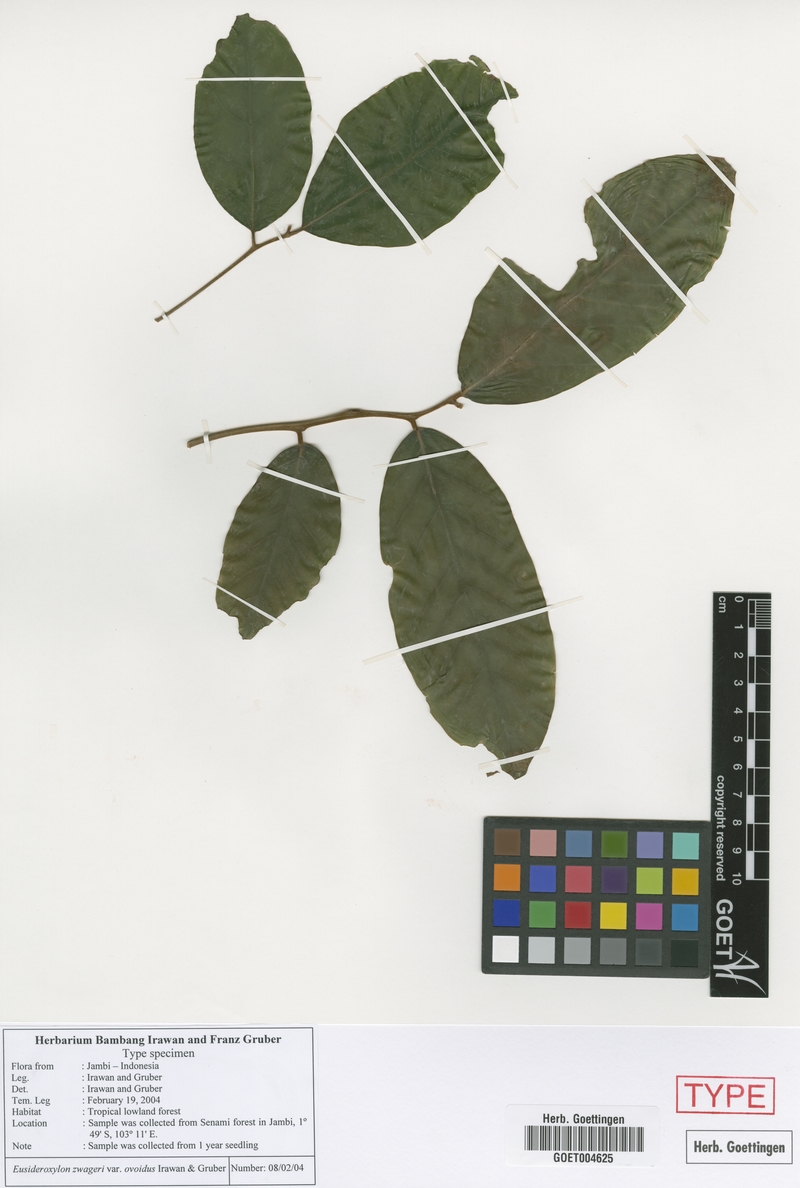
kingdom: Plantae
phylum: Tracheophyta
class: Magnoliopsida
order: Laurales
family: Lauraceae
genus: Eusideroxylon
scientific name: Eusideroxylon zwageri
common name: Borneo ironwood
